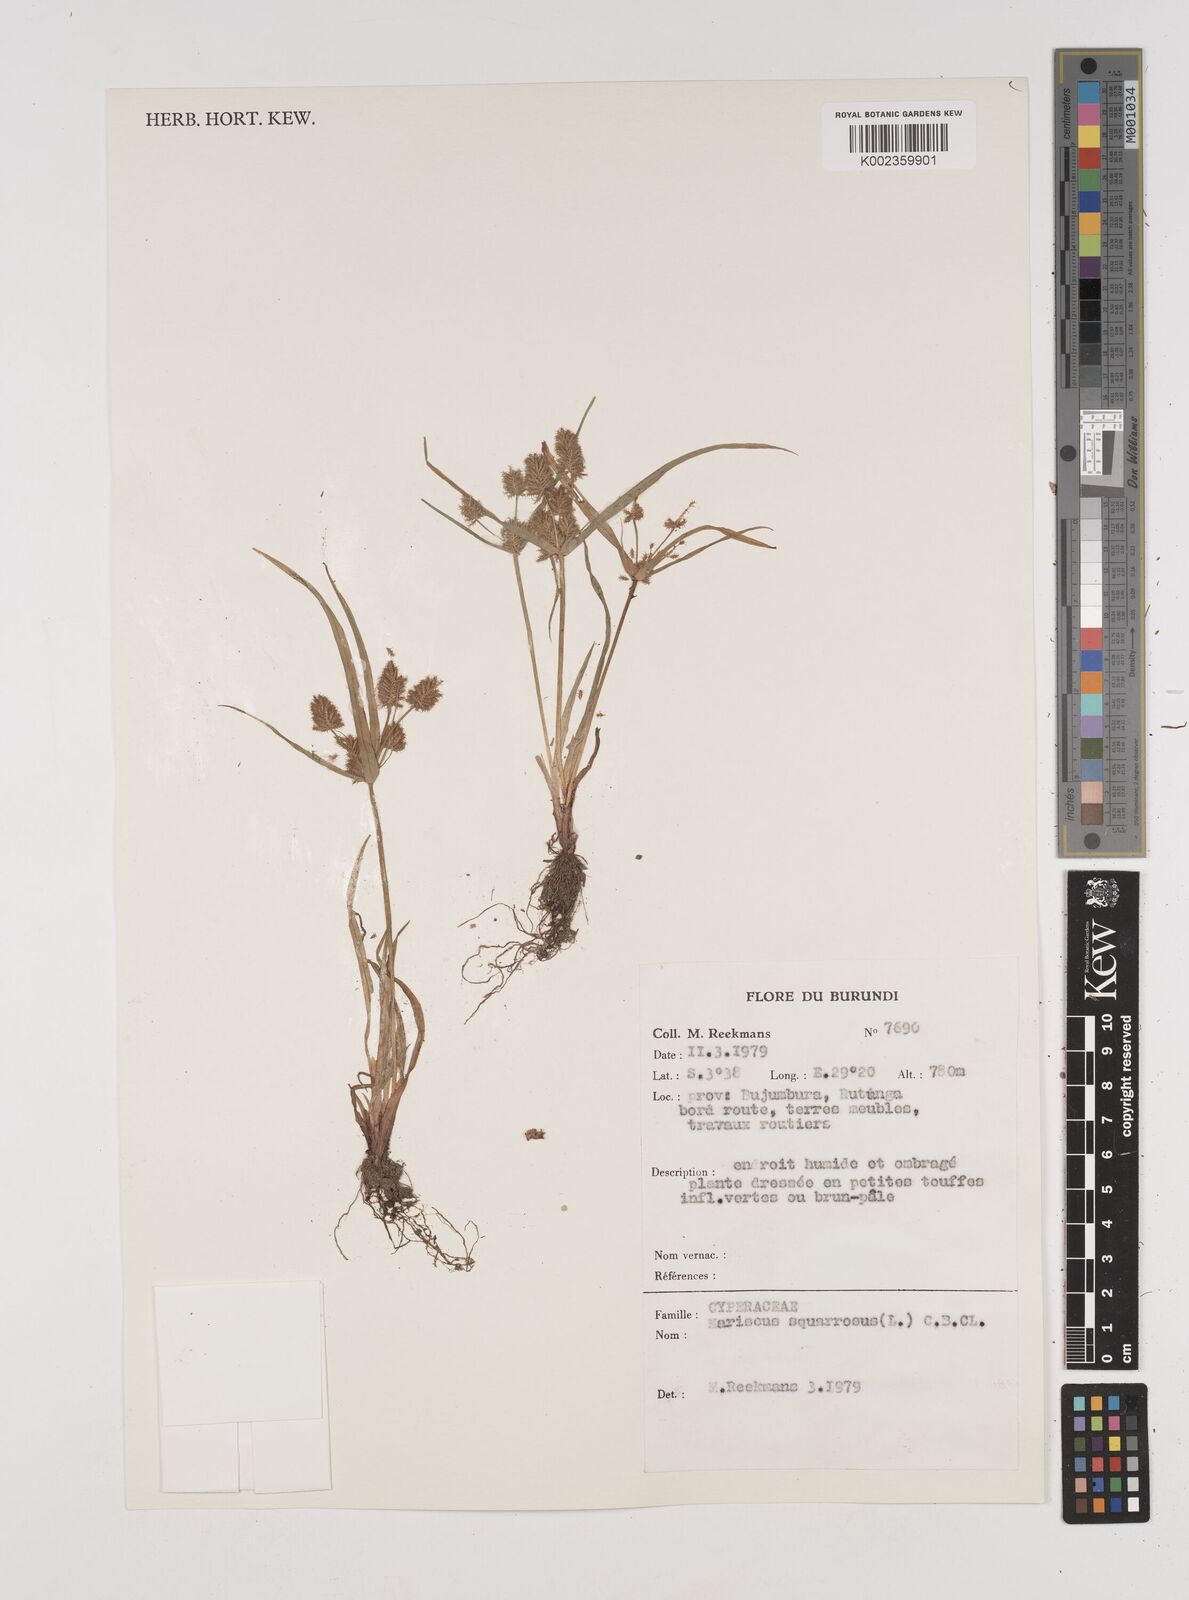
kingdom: Plantae
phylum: Tracheophyta
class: Liliopsida
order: Poales
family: Cyperaceae
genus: Cyperus
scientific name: Cyperus squarrosus
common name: Awned cyperus
